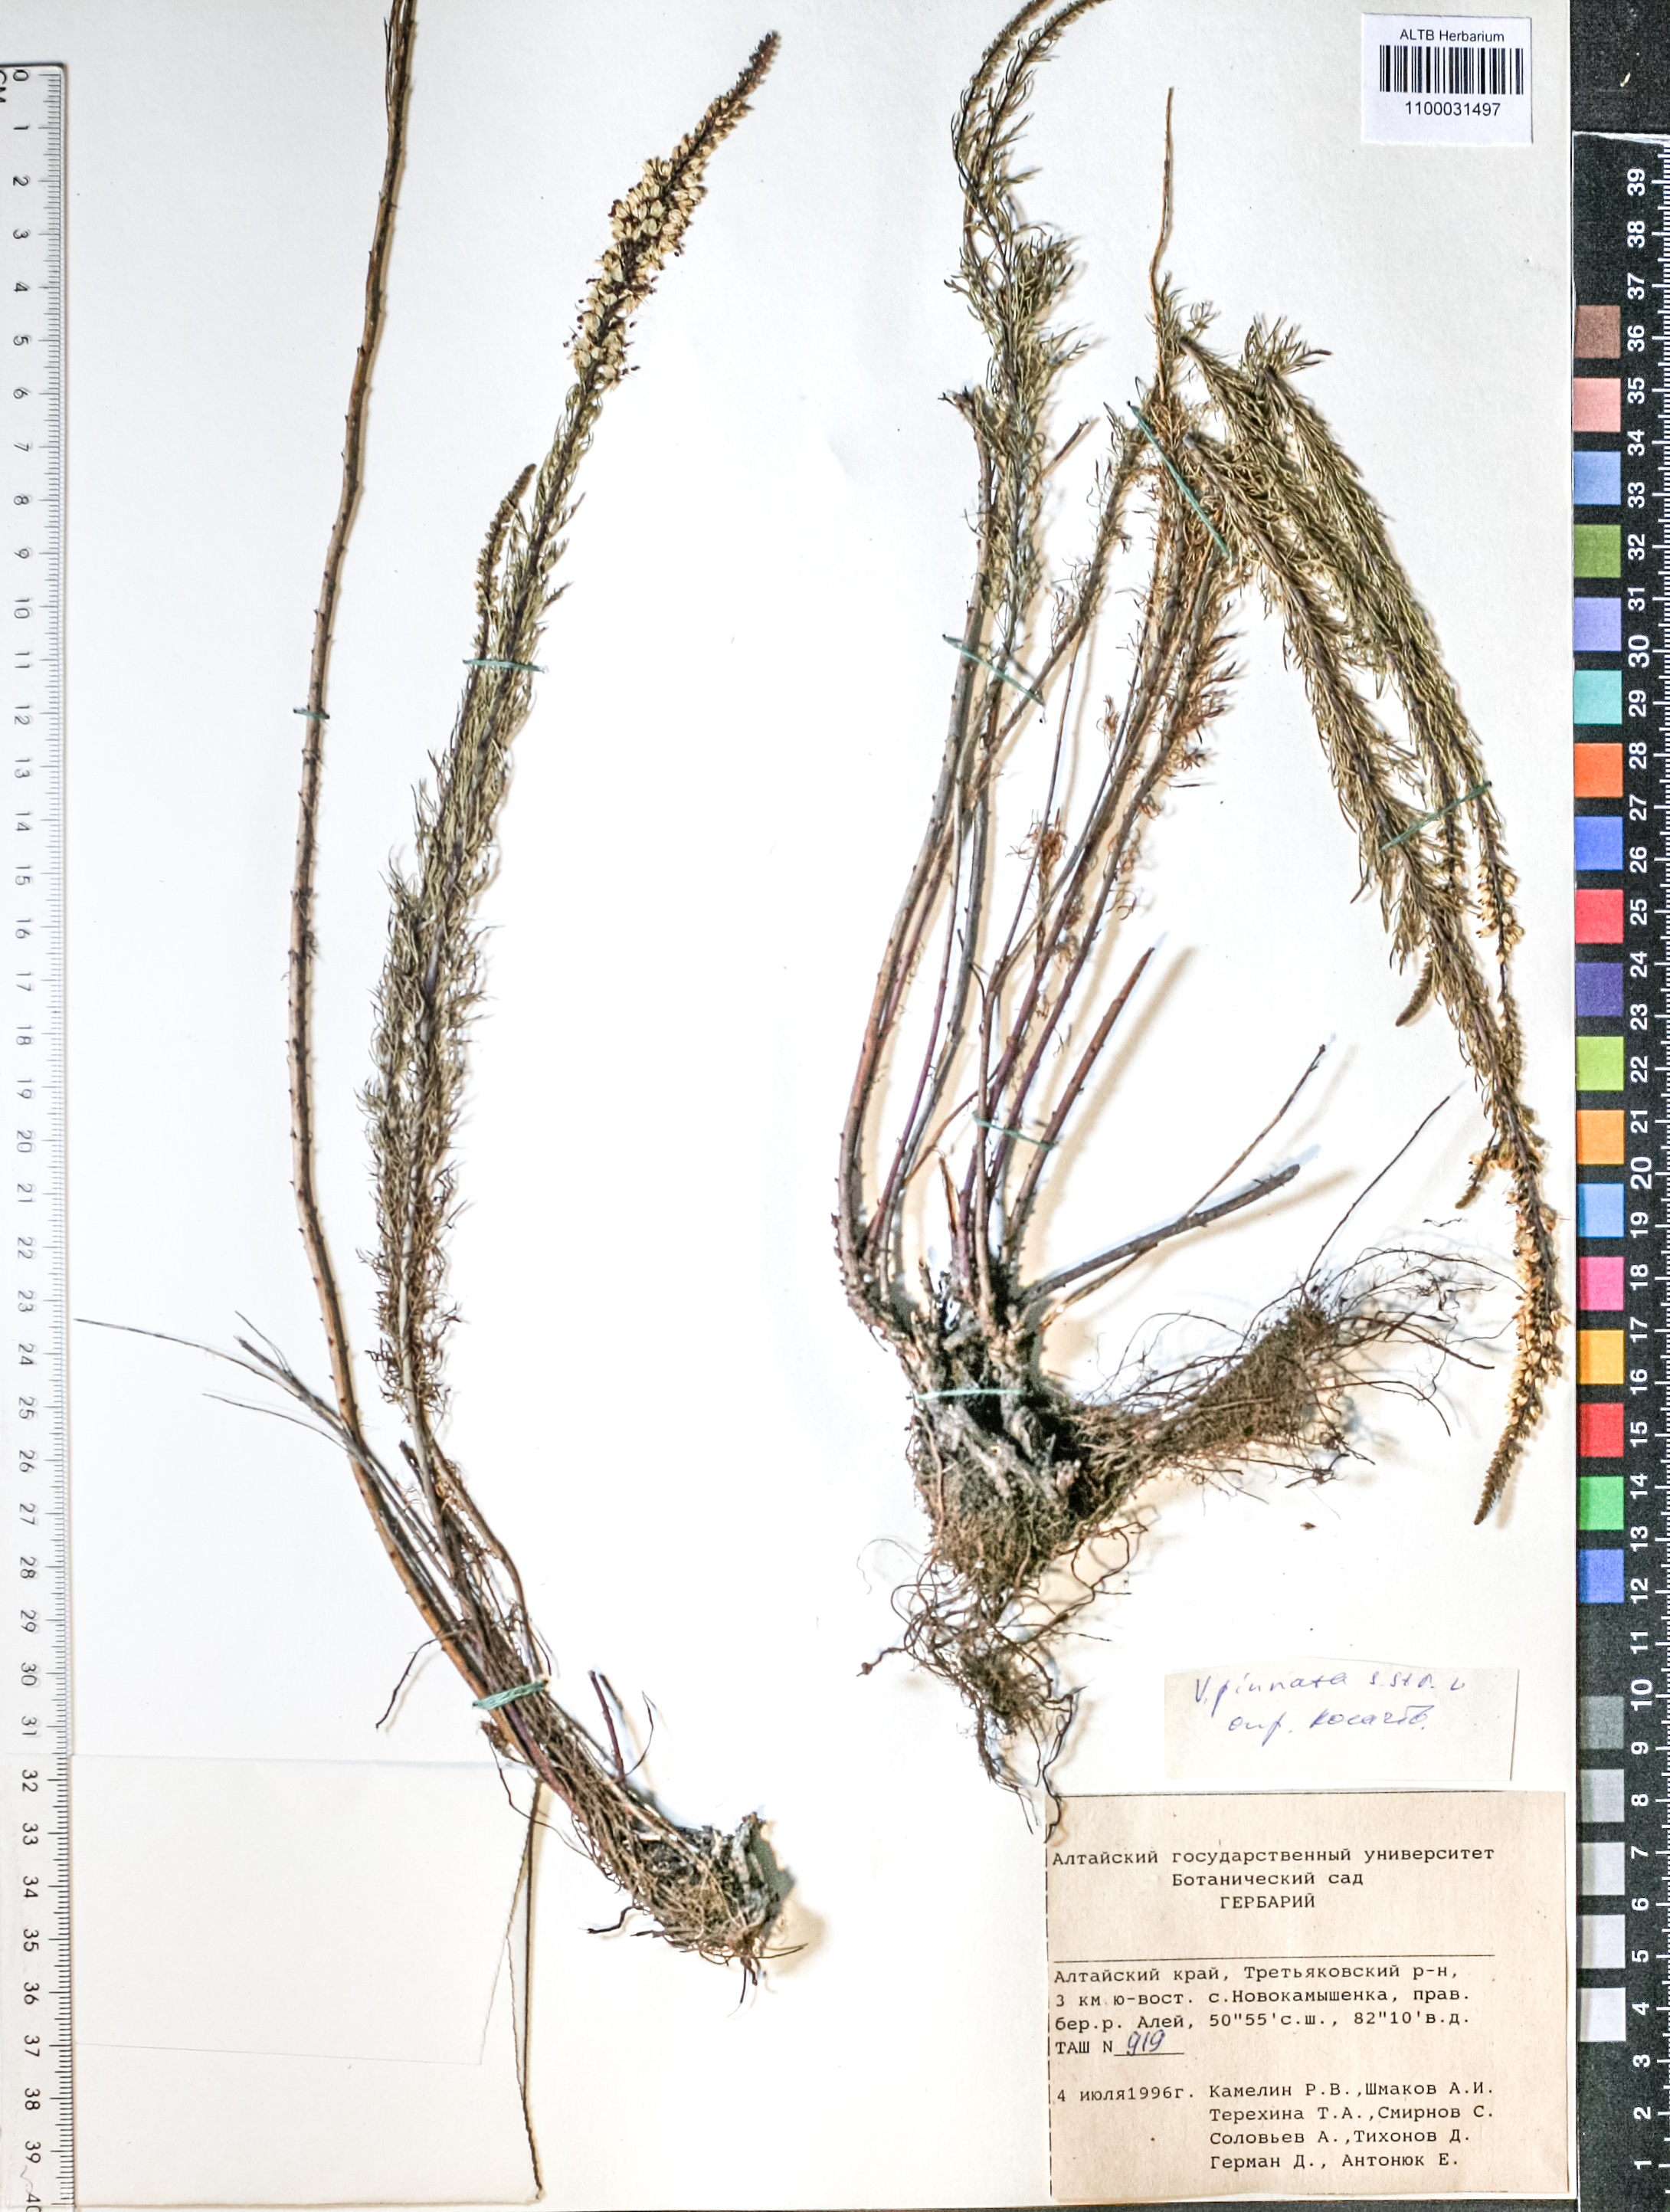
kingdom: Plantae
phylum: Tracheophyta
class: Magnoliopsida
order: Lamiales
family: Plantaginaceae
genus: Veronica
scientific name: Veronica pinnata
